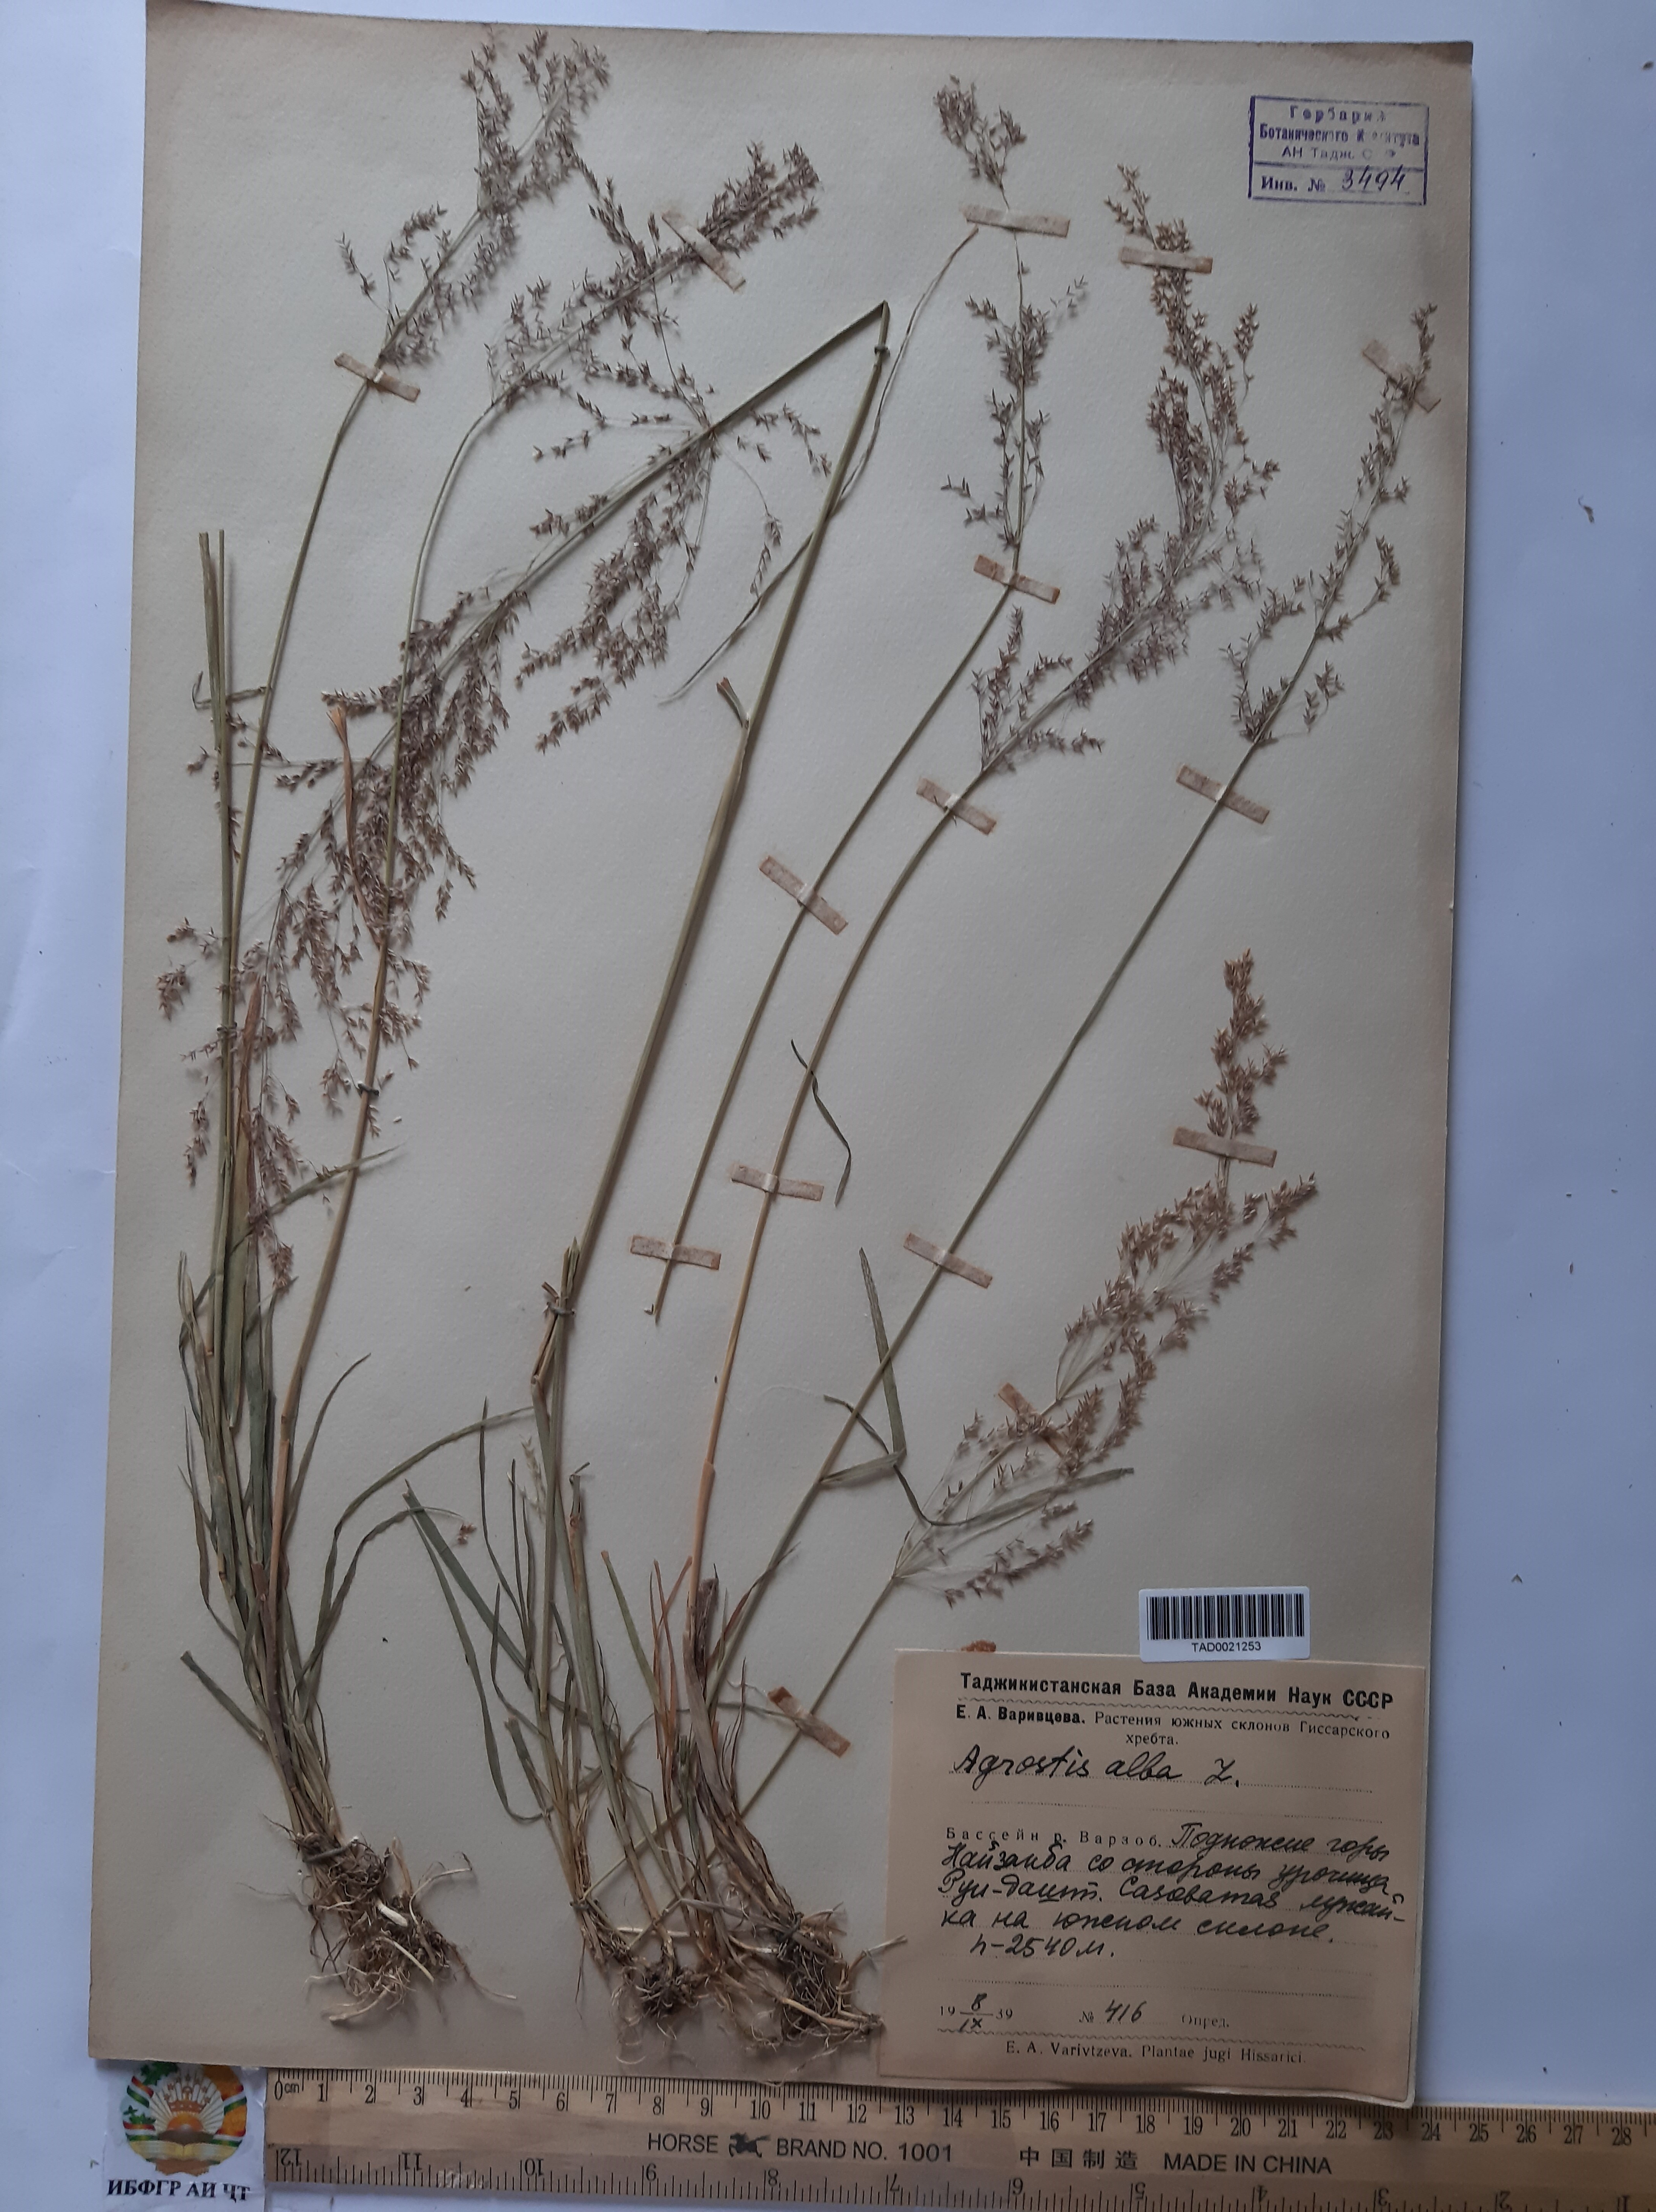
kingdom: Plantae
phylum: Tracheophyta
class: Liliopsida
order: Poales
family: Poaceae
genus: Poa
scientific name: Poa nemoralis
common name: Wood bluegrass
